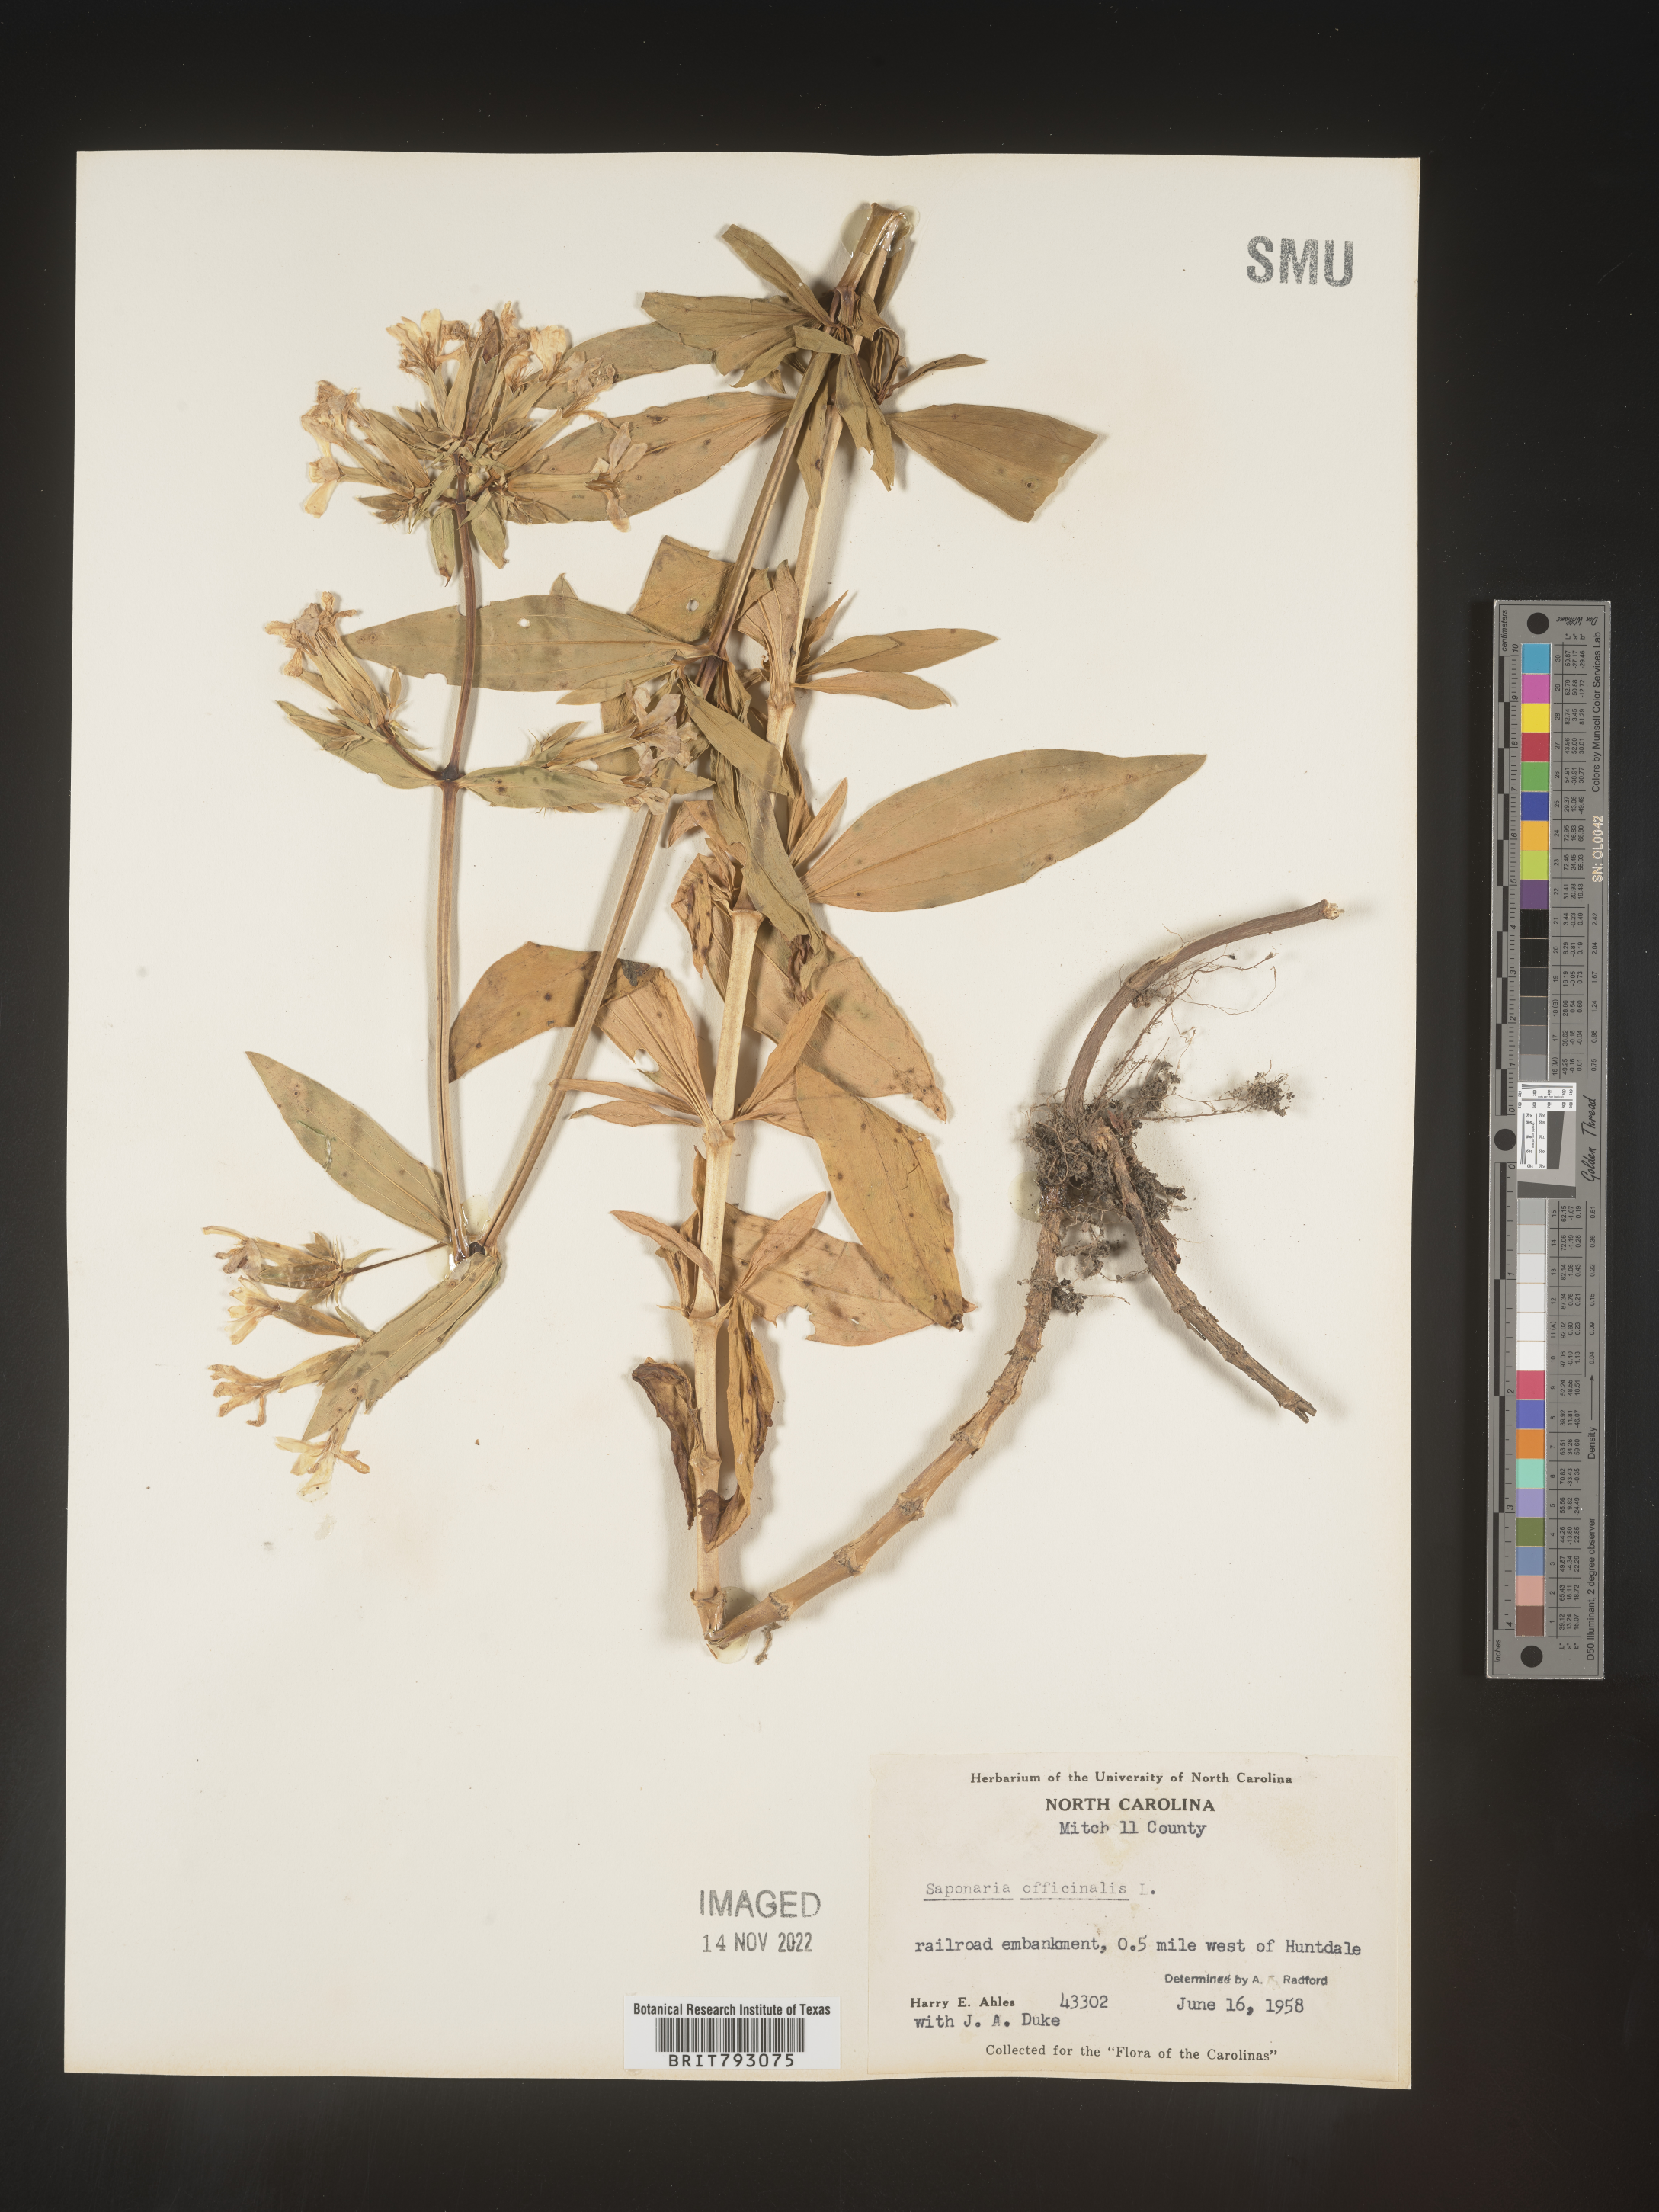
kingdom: Plantae
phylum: Tracheophyta
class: Magnoliopsida
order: Caryophyllales
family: Caryophyllaceae
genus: Saponaria
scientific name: Saponaria officinalis
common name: Soapwort
